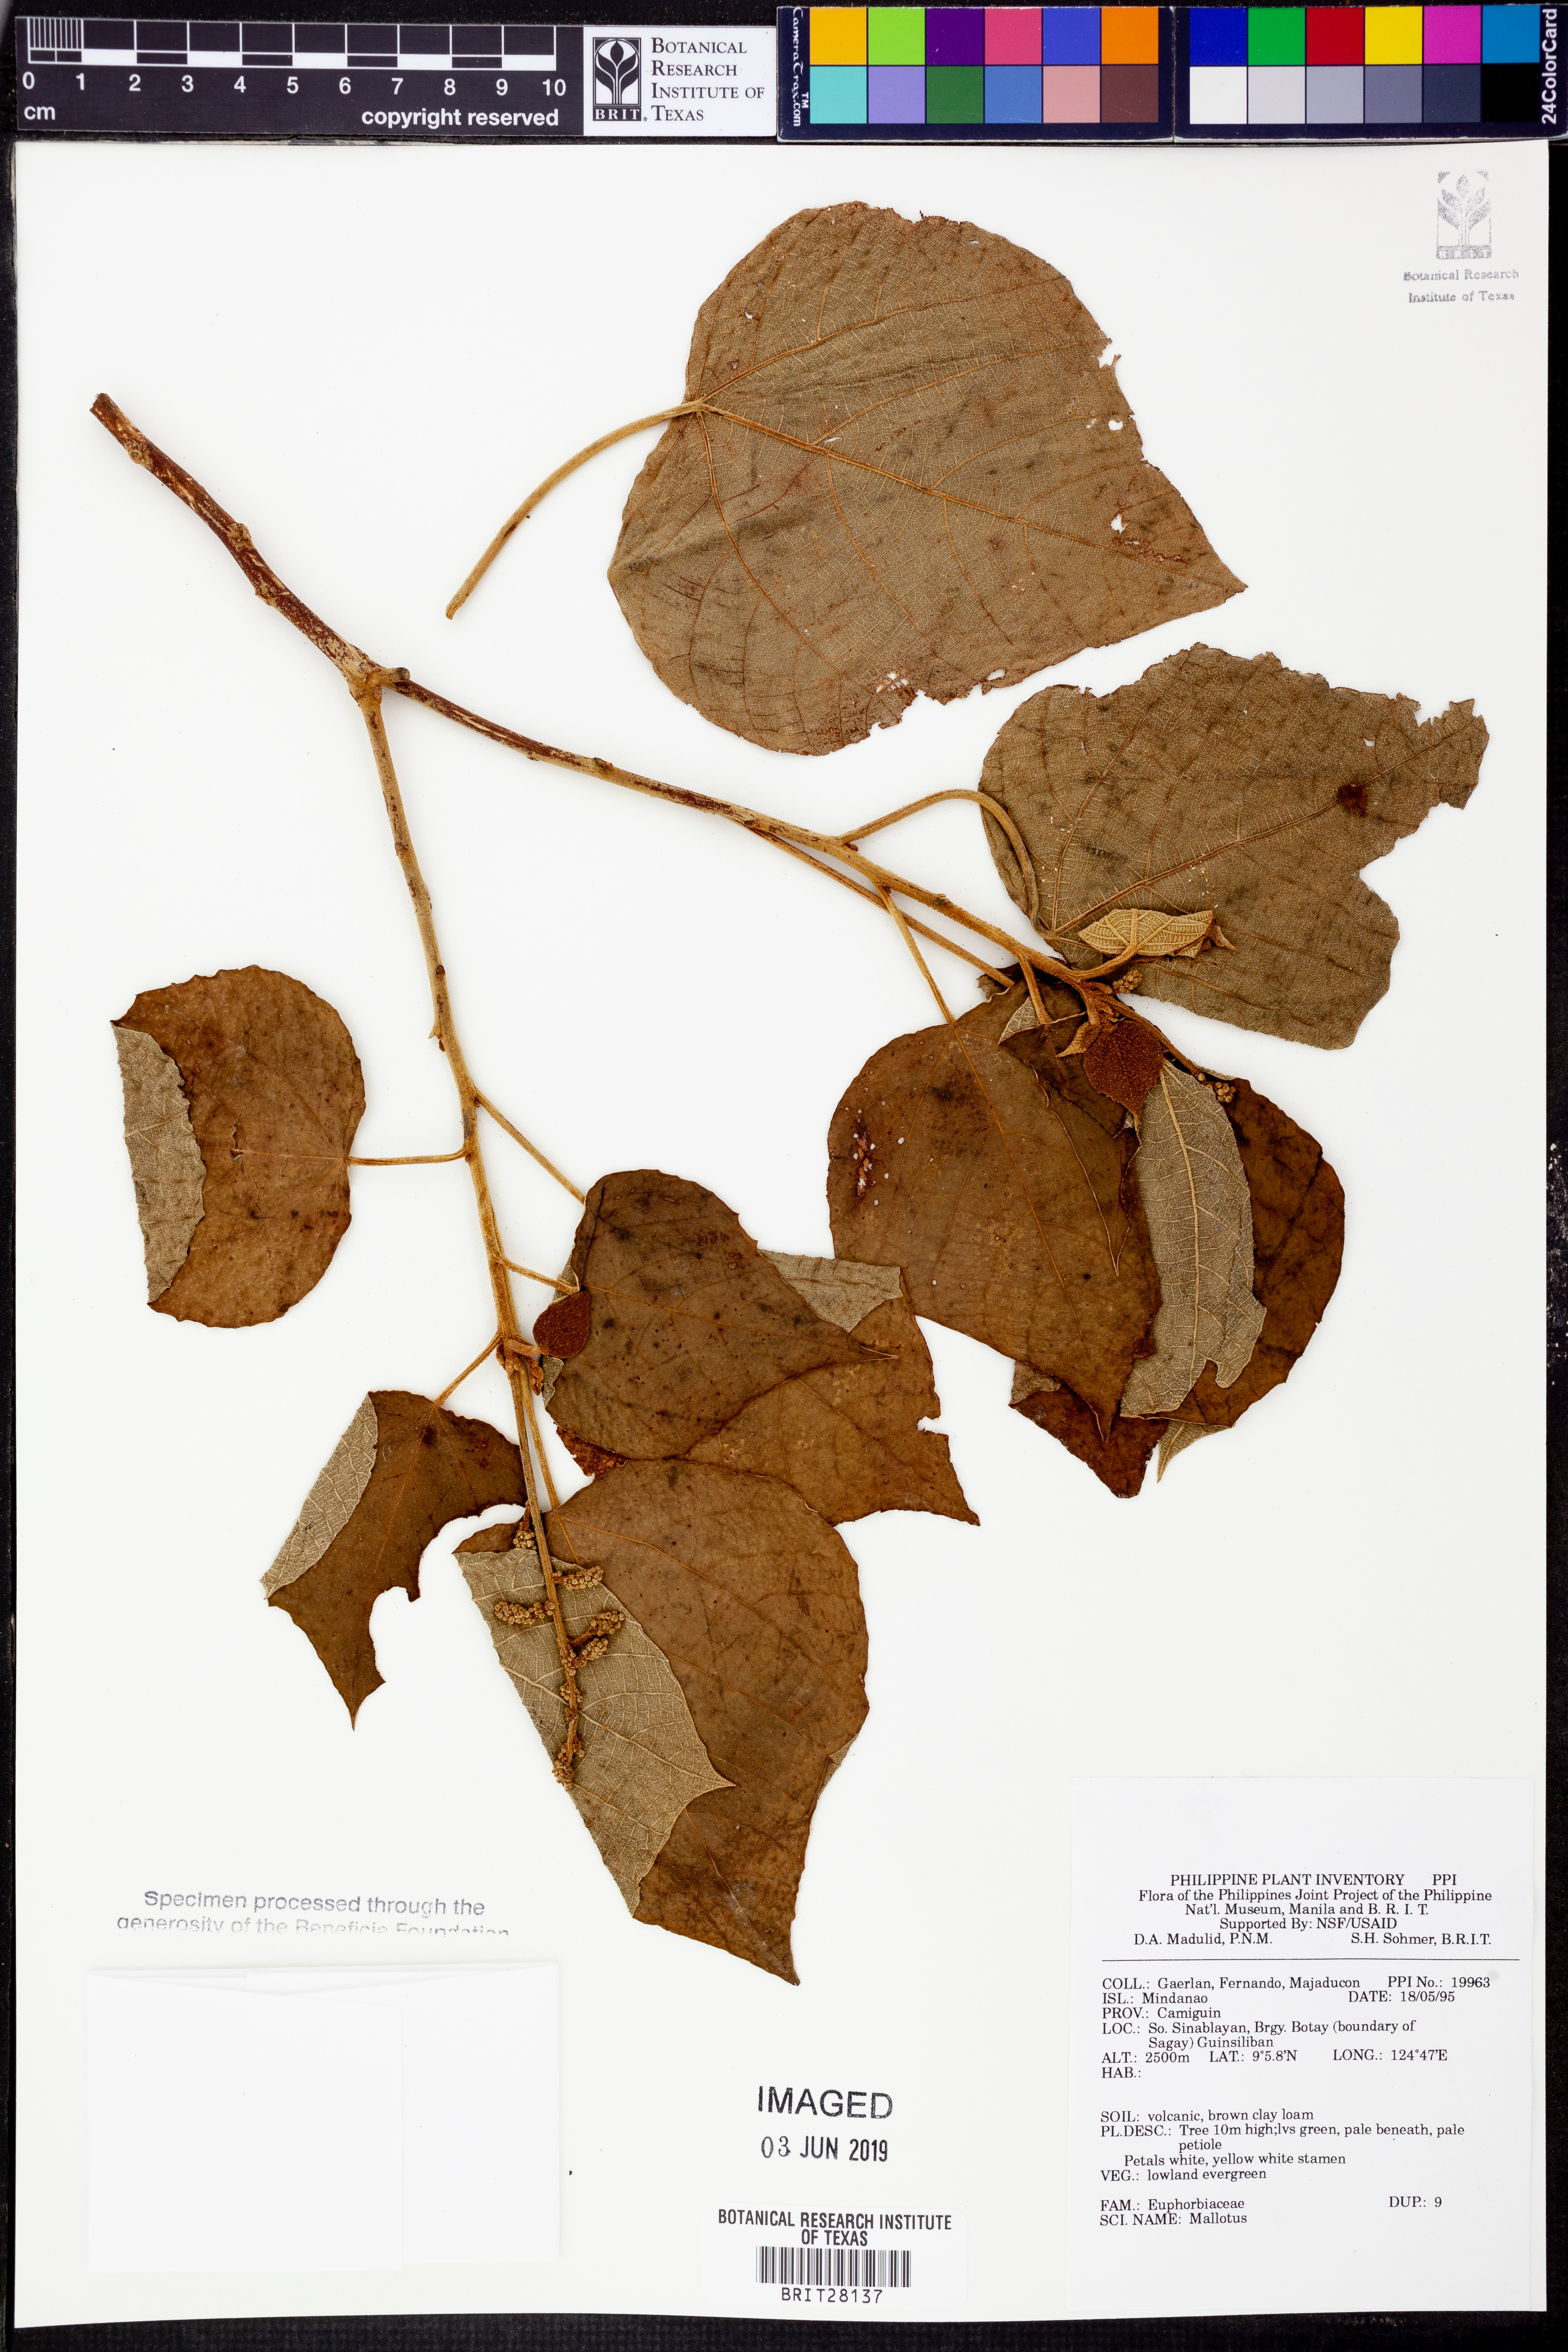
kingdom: Plantae
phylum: Tracheophyta
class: Magnoliopsida
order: Malpighiales
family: Euphorbiaceae
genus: Mallotus
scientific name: Mallotus
